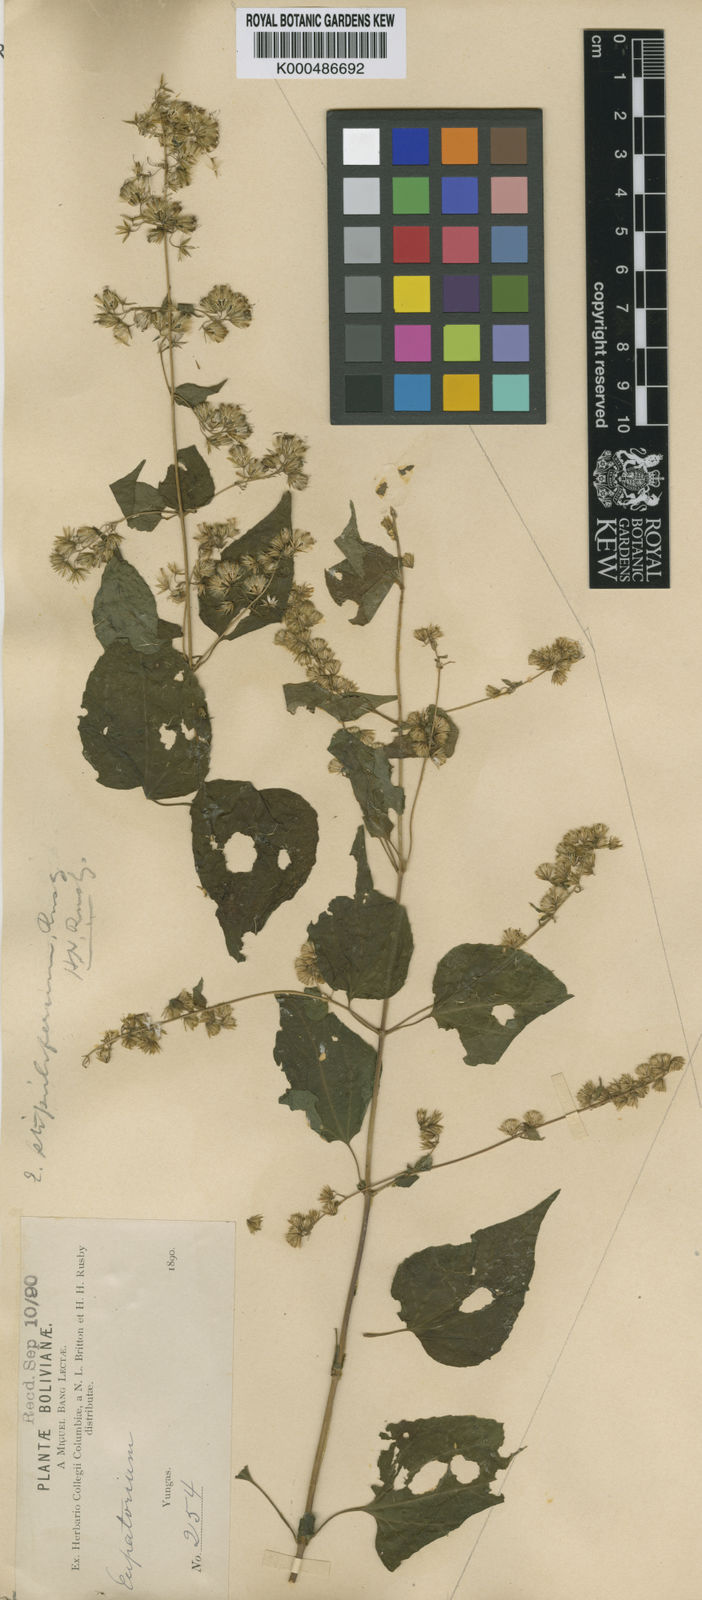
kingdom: Plantae
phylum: Tracheophyta
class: Magnoliopsida
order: Asterales
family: Asteraceae
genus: Koanophyllon
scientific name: Koanophyllon solidaginoides
